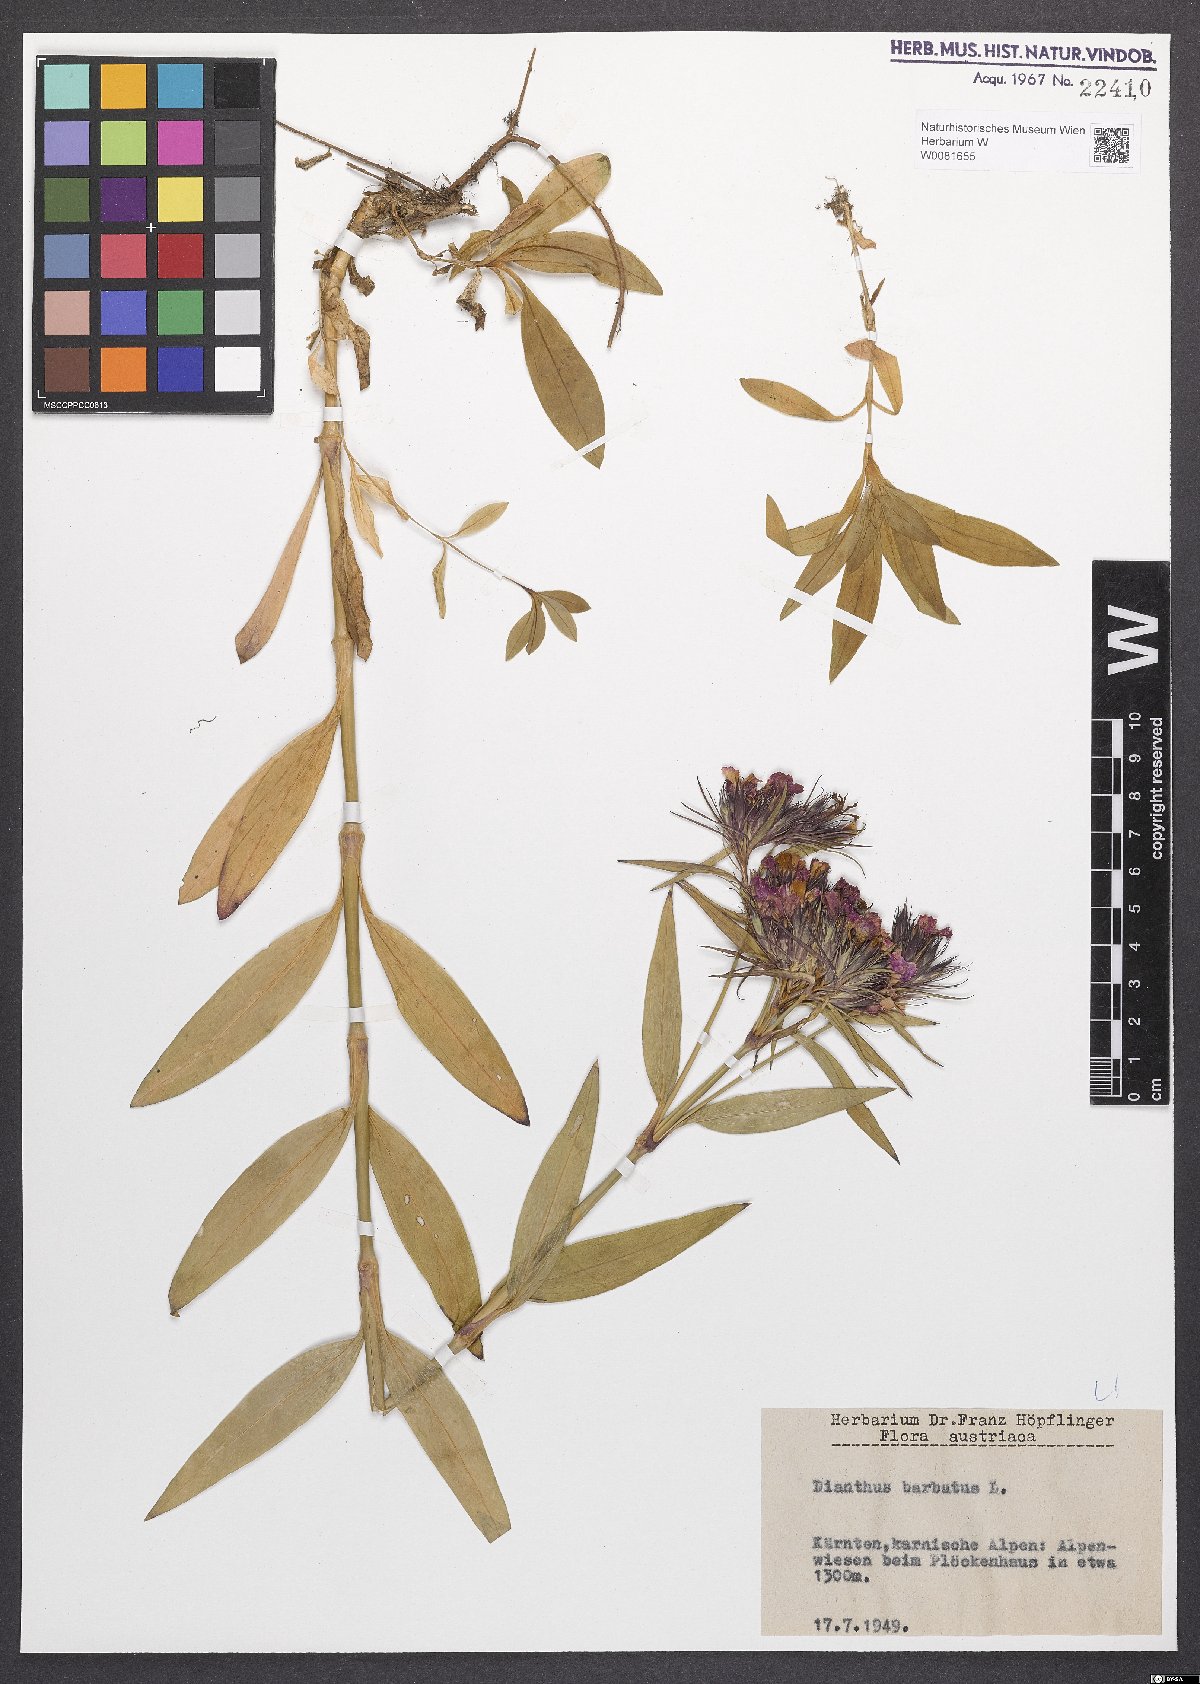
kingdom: Plantae
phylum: Tracheophyta
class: Magnoliopsida
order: Caryophyllales
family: Caryophyllaceae
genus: Dianthus
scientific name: Dianthus barbatus
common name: Sweet-william
